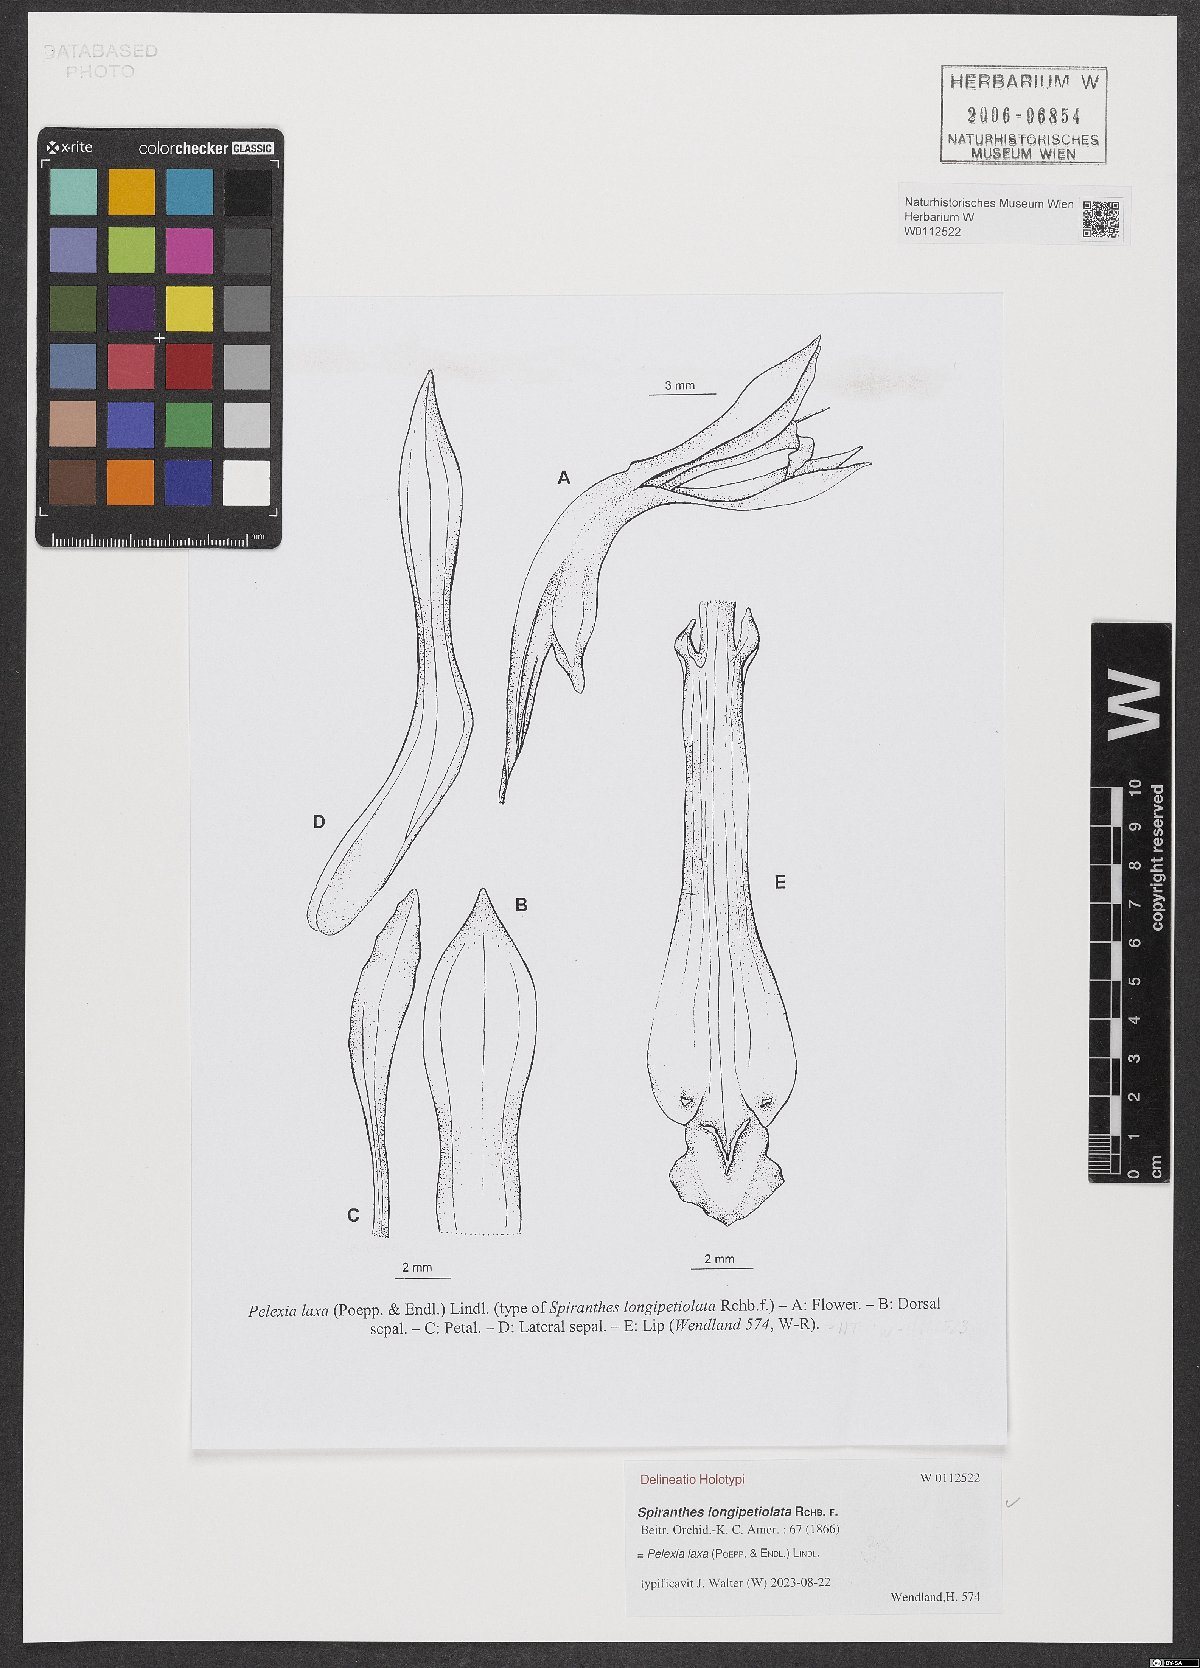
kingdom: Plantae
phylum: Tracheophyta
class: Liliopsida
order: Asparagales
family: Orchidaceae
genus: Pelexia
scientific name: Pelexia laxa
